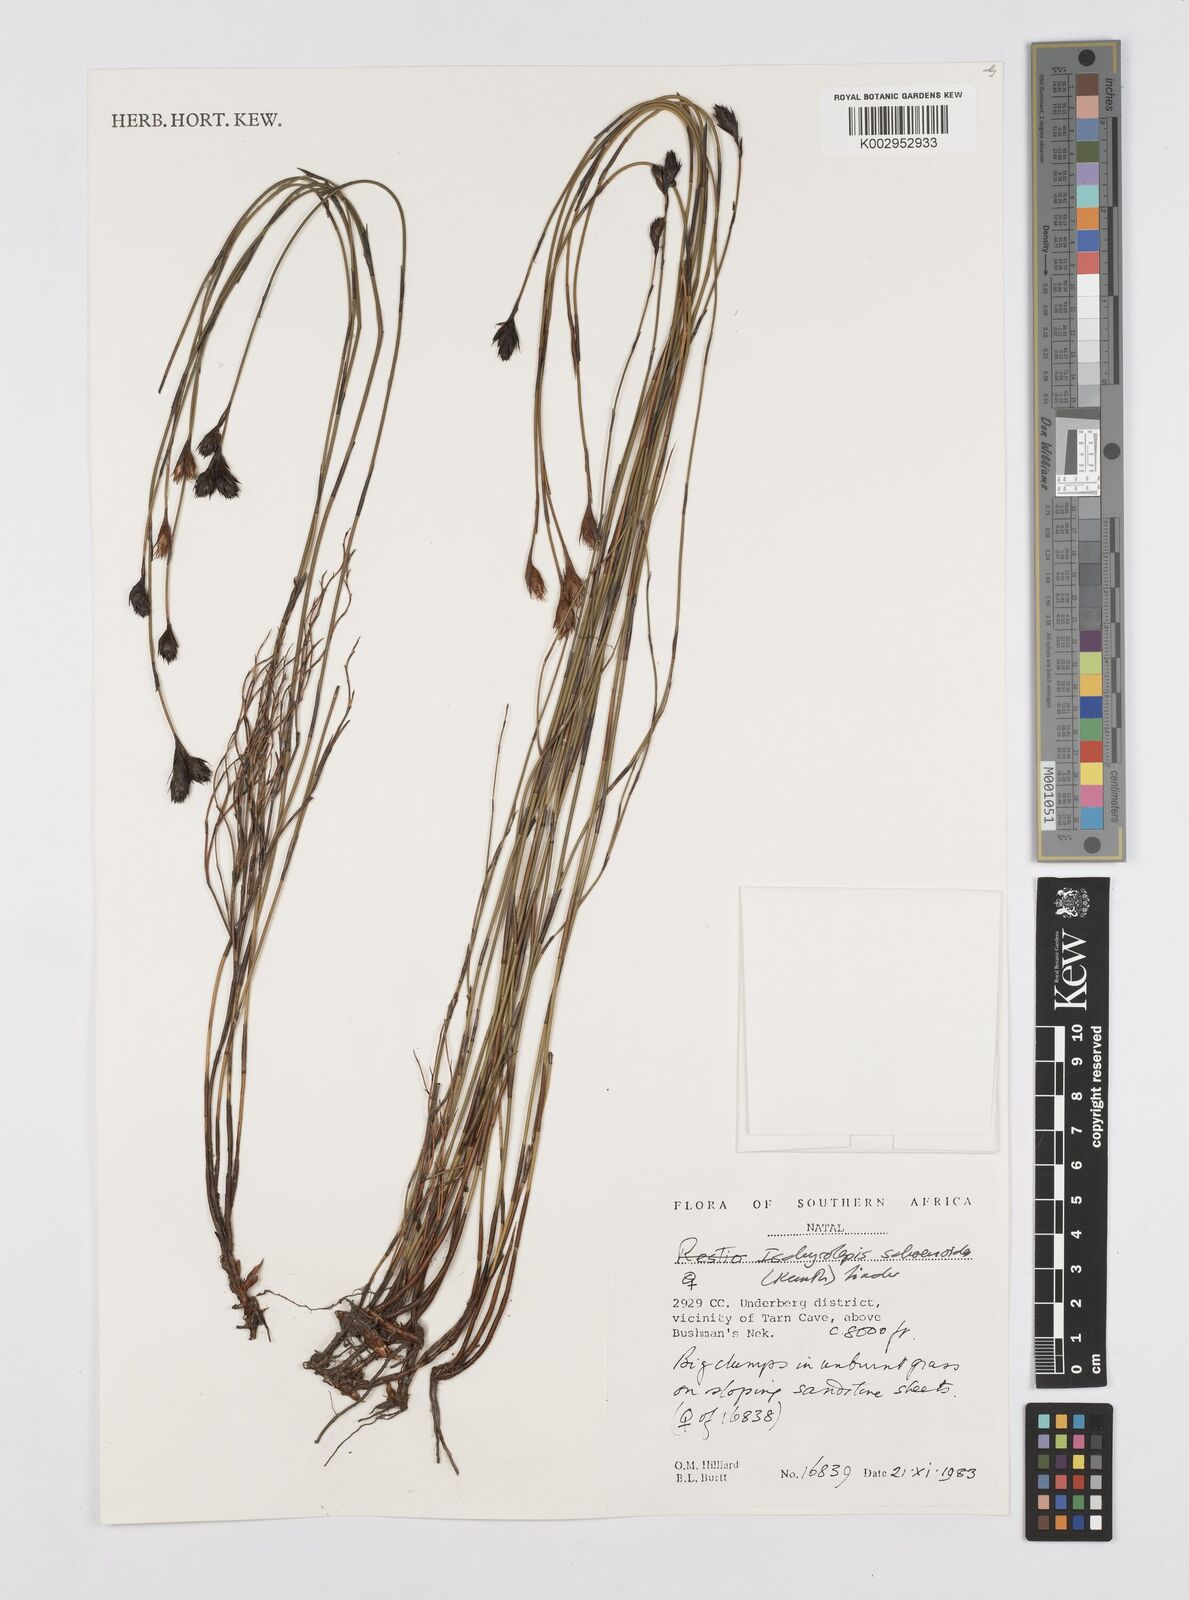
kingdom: Plantae
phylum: Tracheophyta
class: Liliopsida
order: Poales
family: Restionaceae
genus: Restio
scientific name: Restio schoenoides
